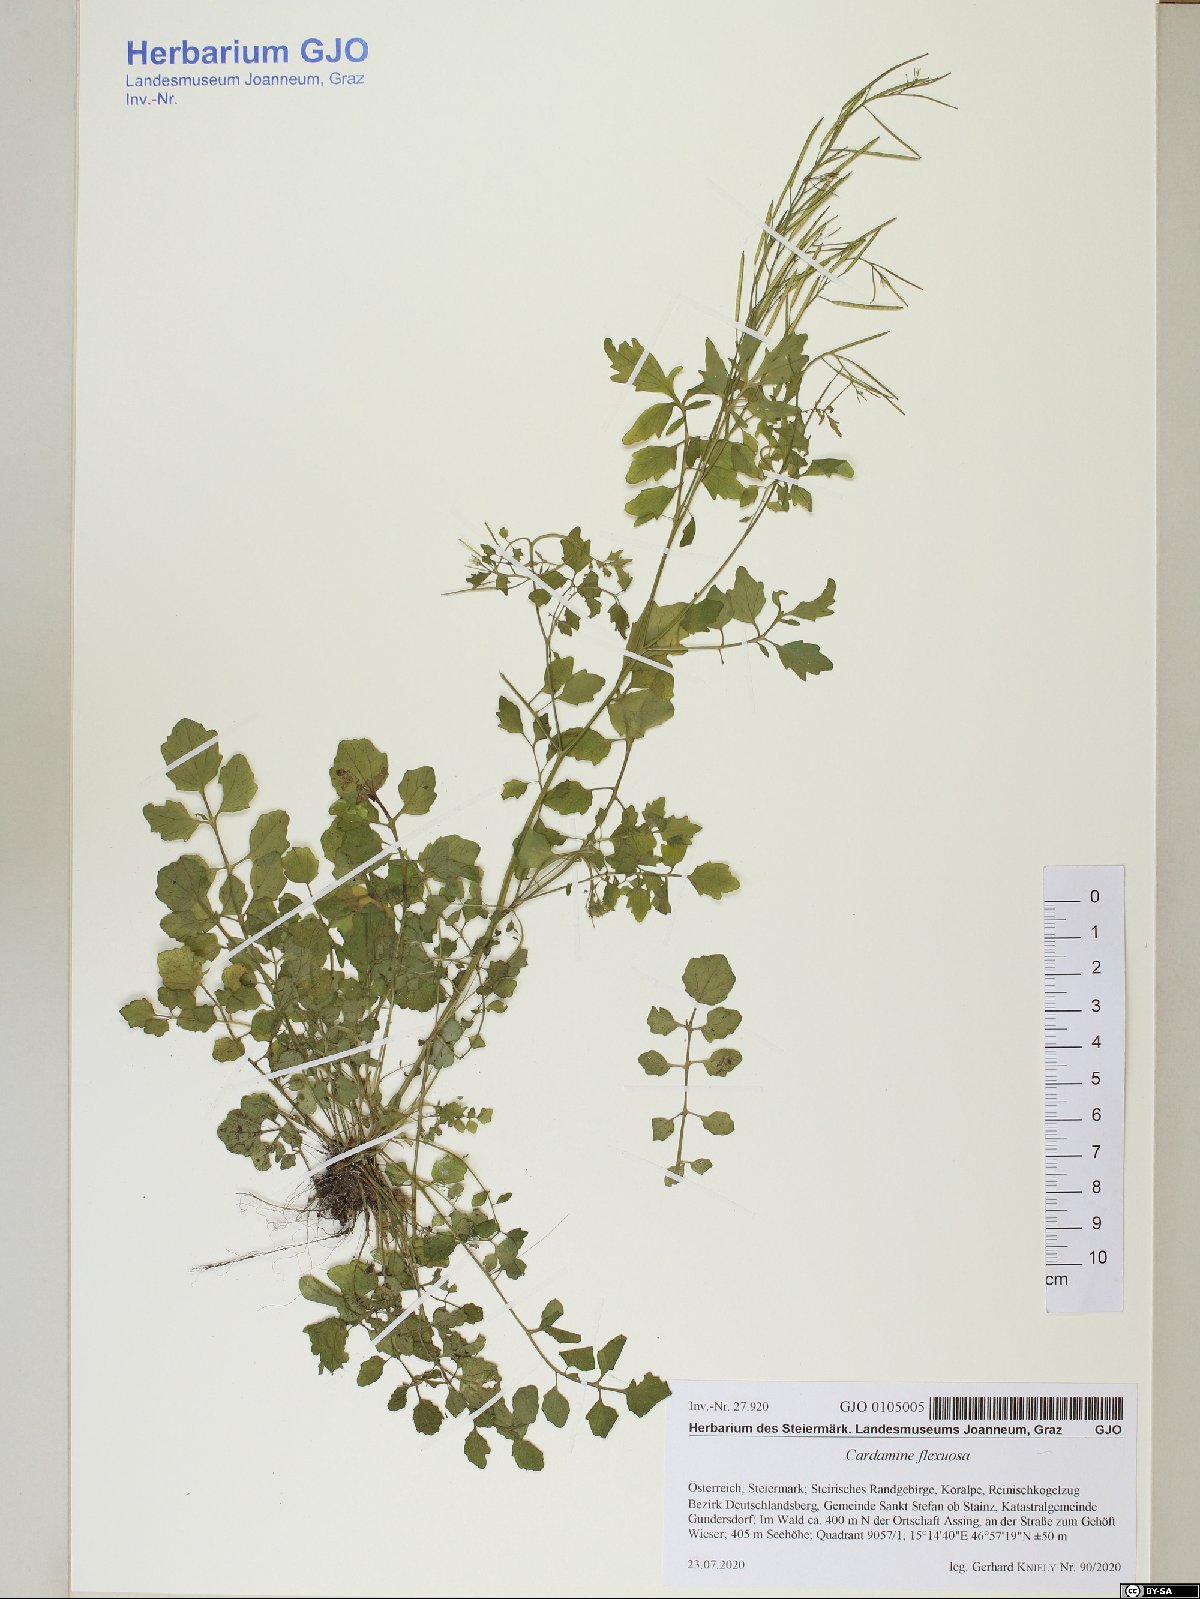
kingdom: Plantae
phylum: Tracheophyta
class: Magnoliopsida
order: Brassicales
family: Brassicaceae
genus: Cardamine
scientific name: Cardamine flexuosa
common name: Woodland bittercress
